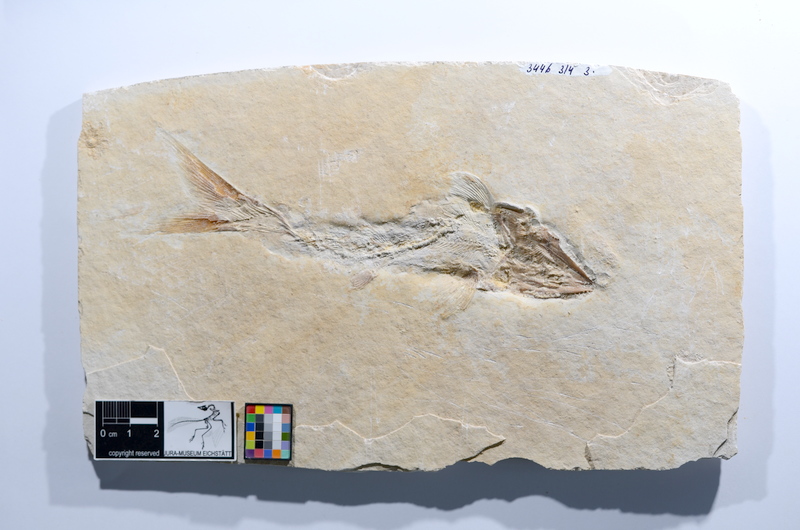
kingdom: Animalia
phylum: Chordata
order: Amiiformes
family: Caturidae
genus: Caturus
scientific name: Caturus
